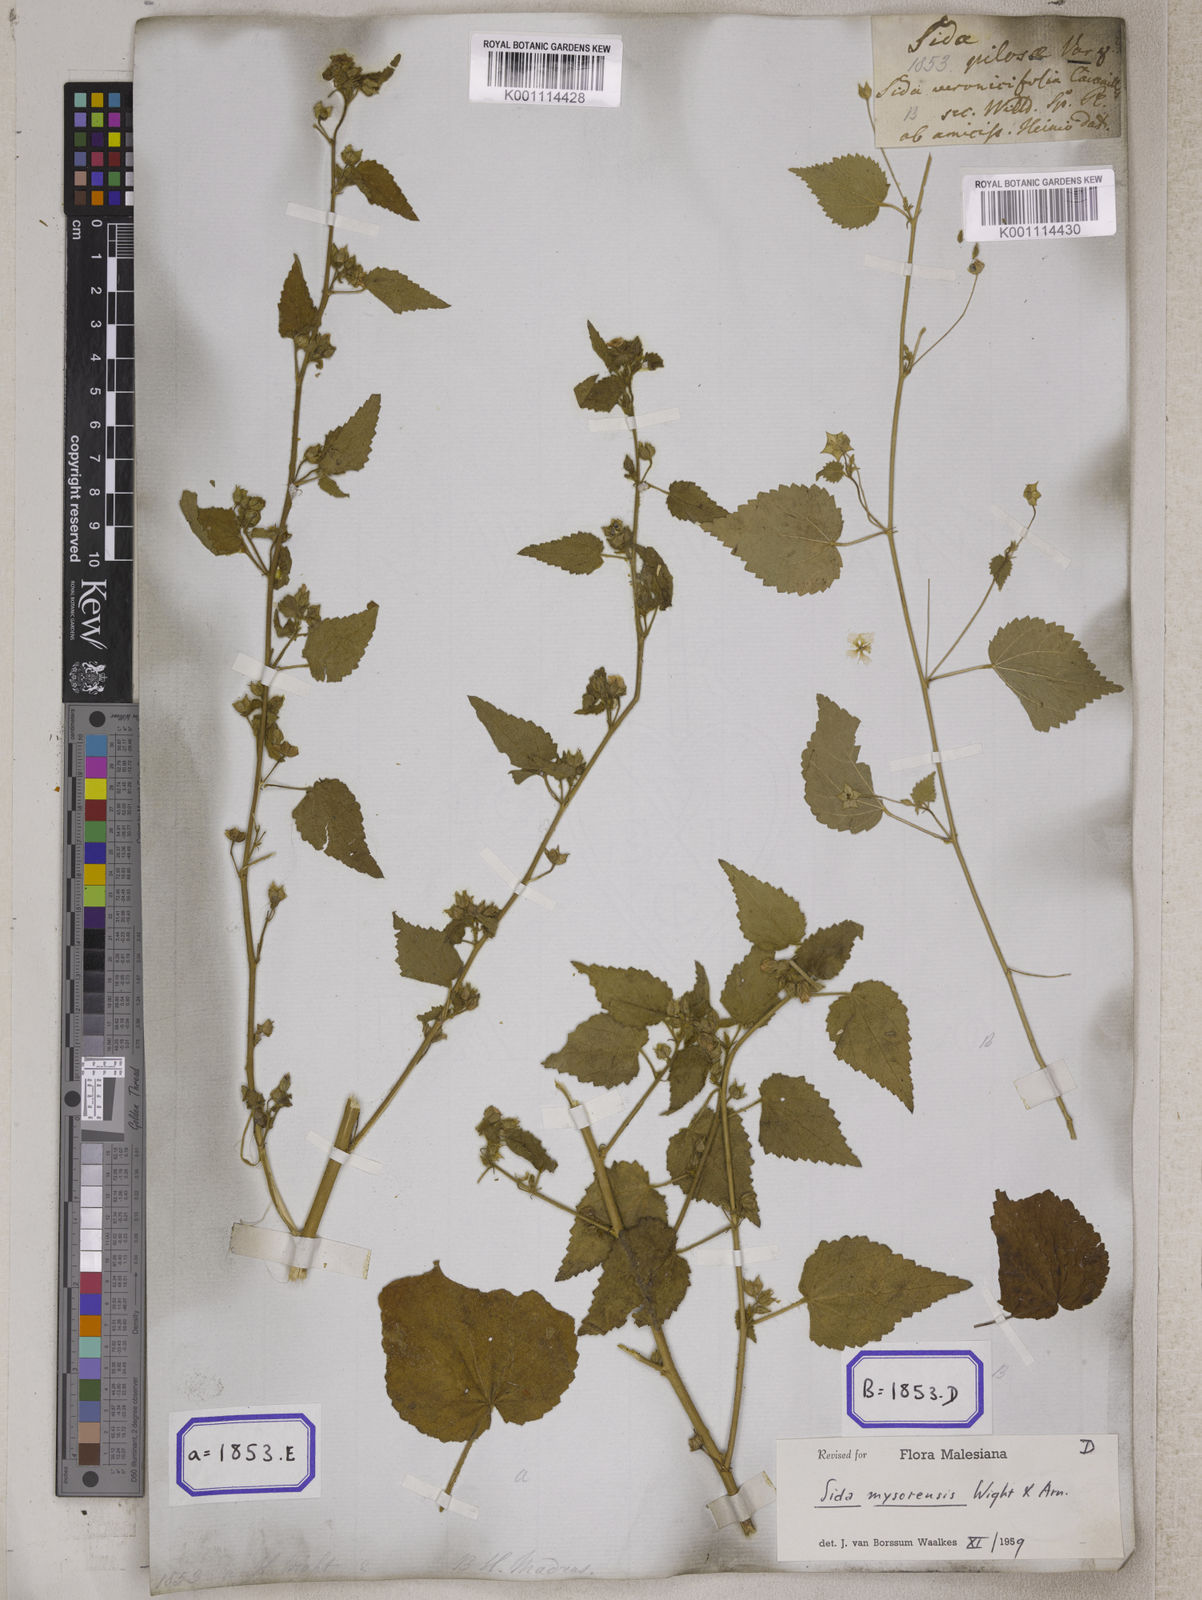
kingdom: Plantae
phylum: Tracheophyta
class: Magnoliopsida
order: Malvales
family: Malvaceae
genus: Sida
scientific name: Sida glutinosa
